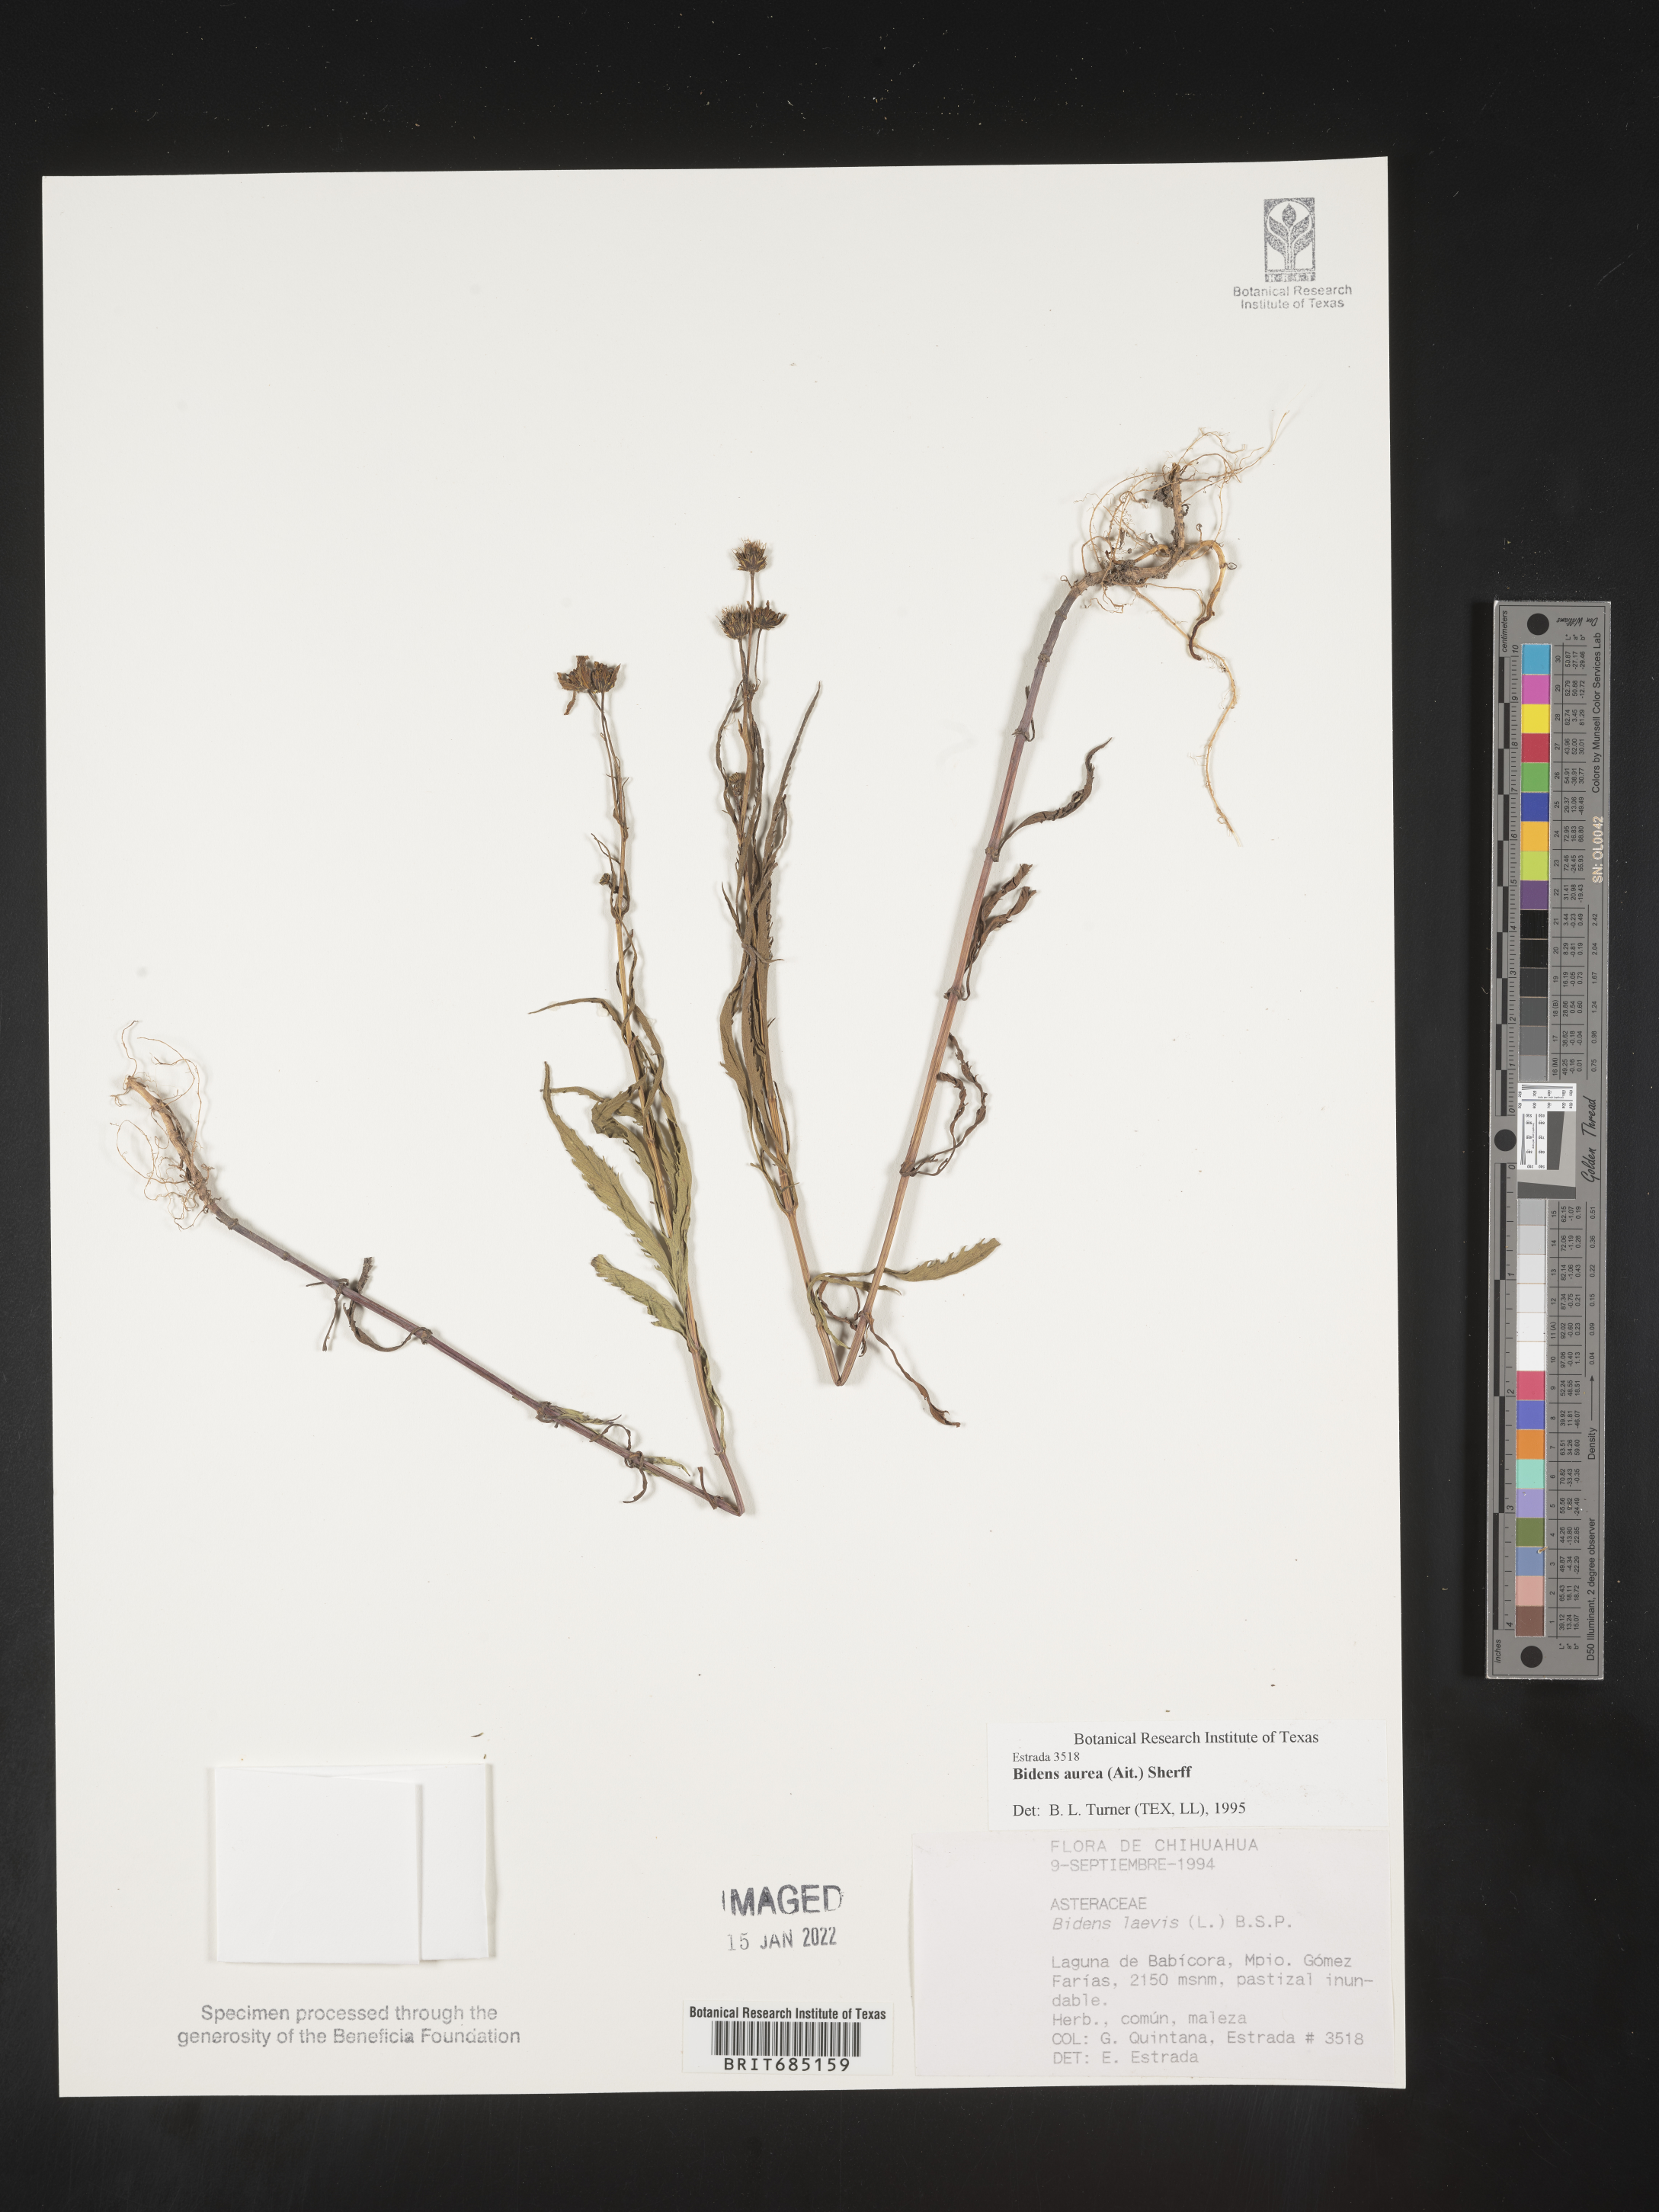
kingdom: Plantae
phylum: Tracheophyta
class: Magnoliopsida
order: Asterales
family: Asteraceae
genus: Bidens
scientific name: Bidens
